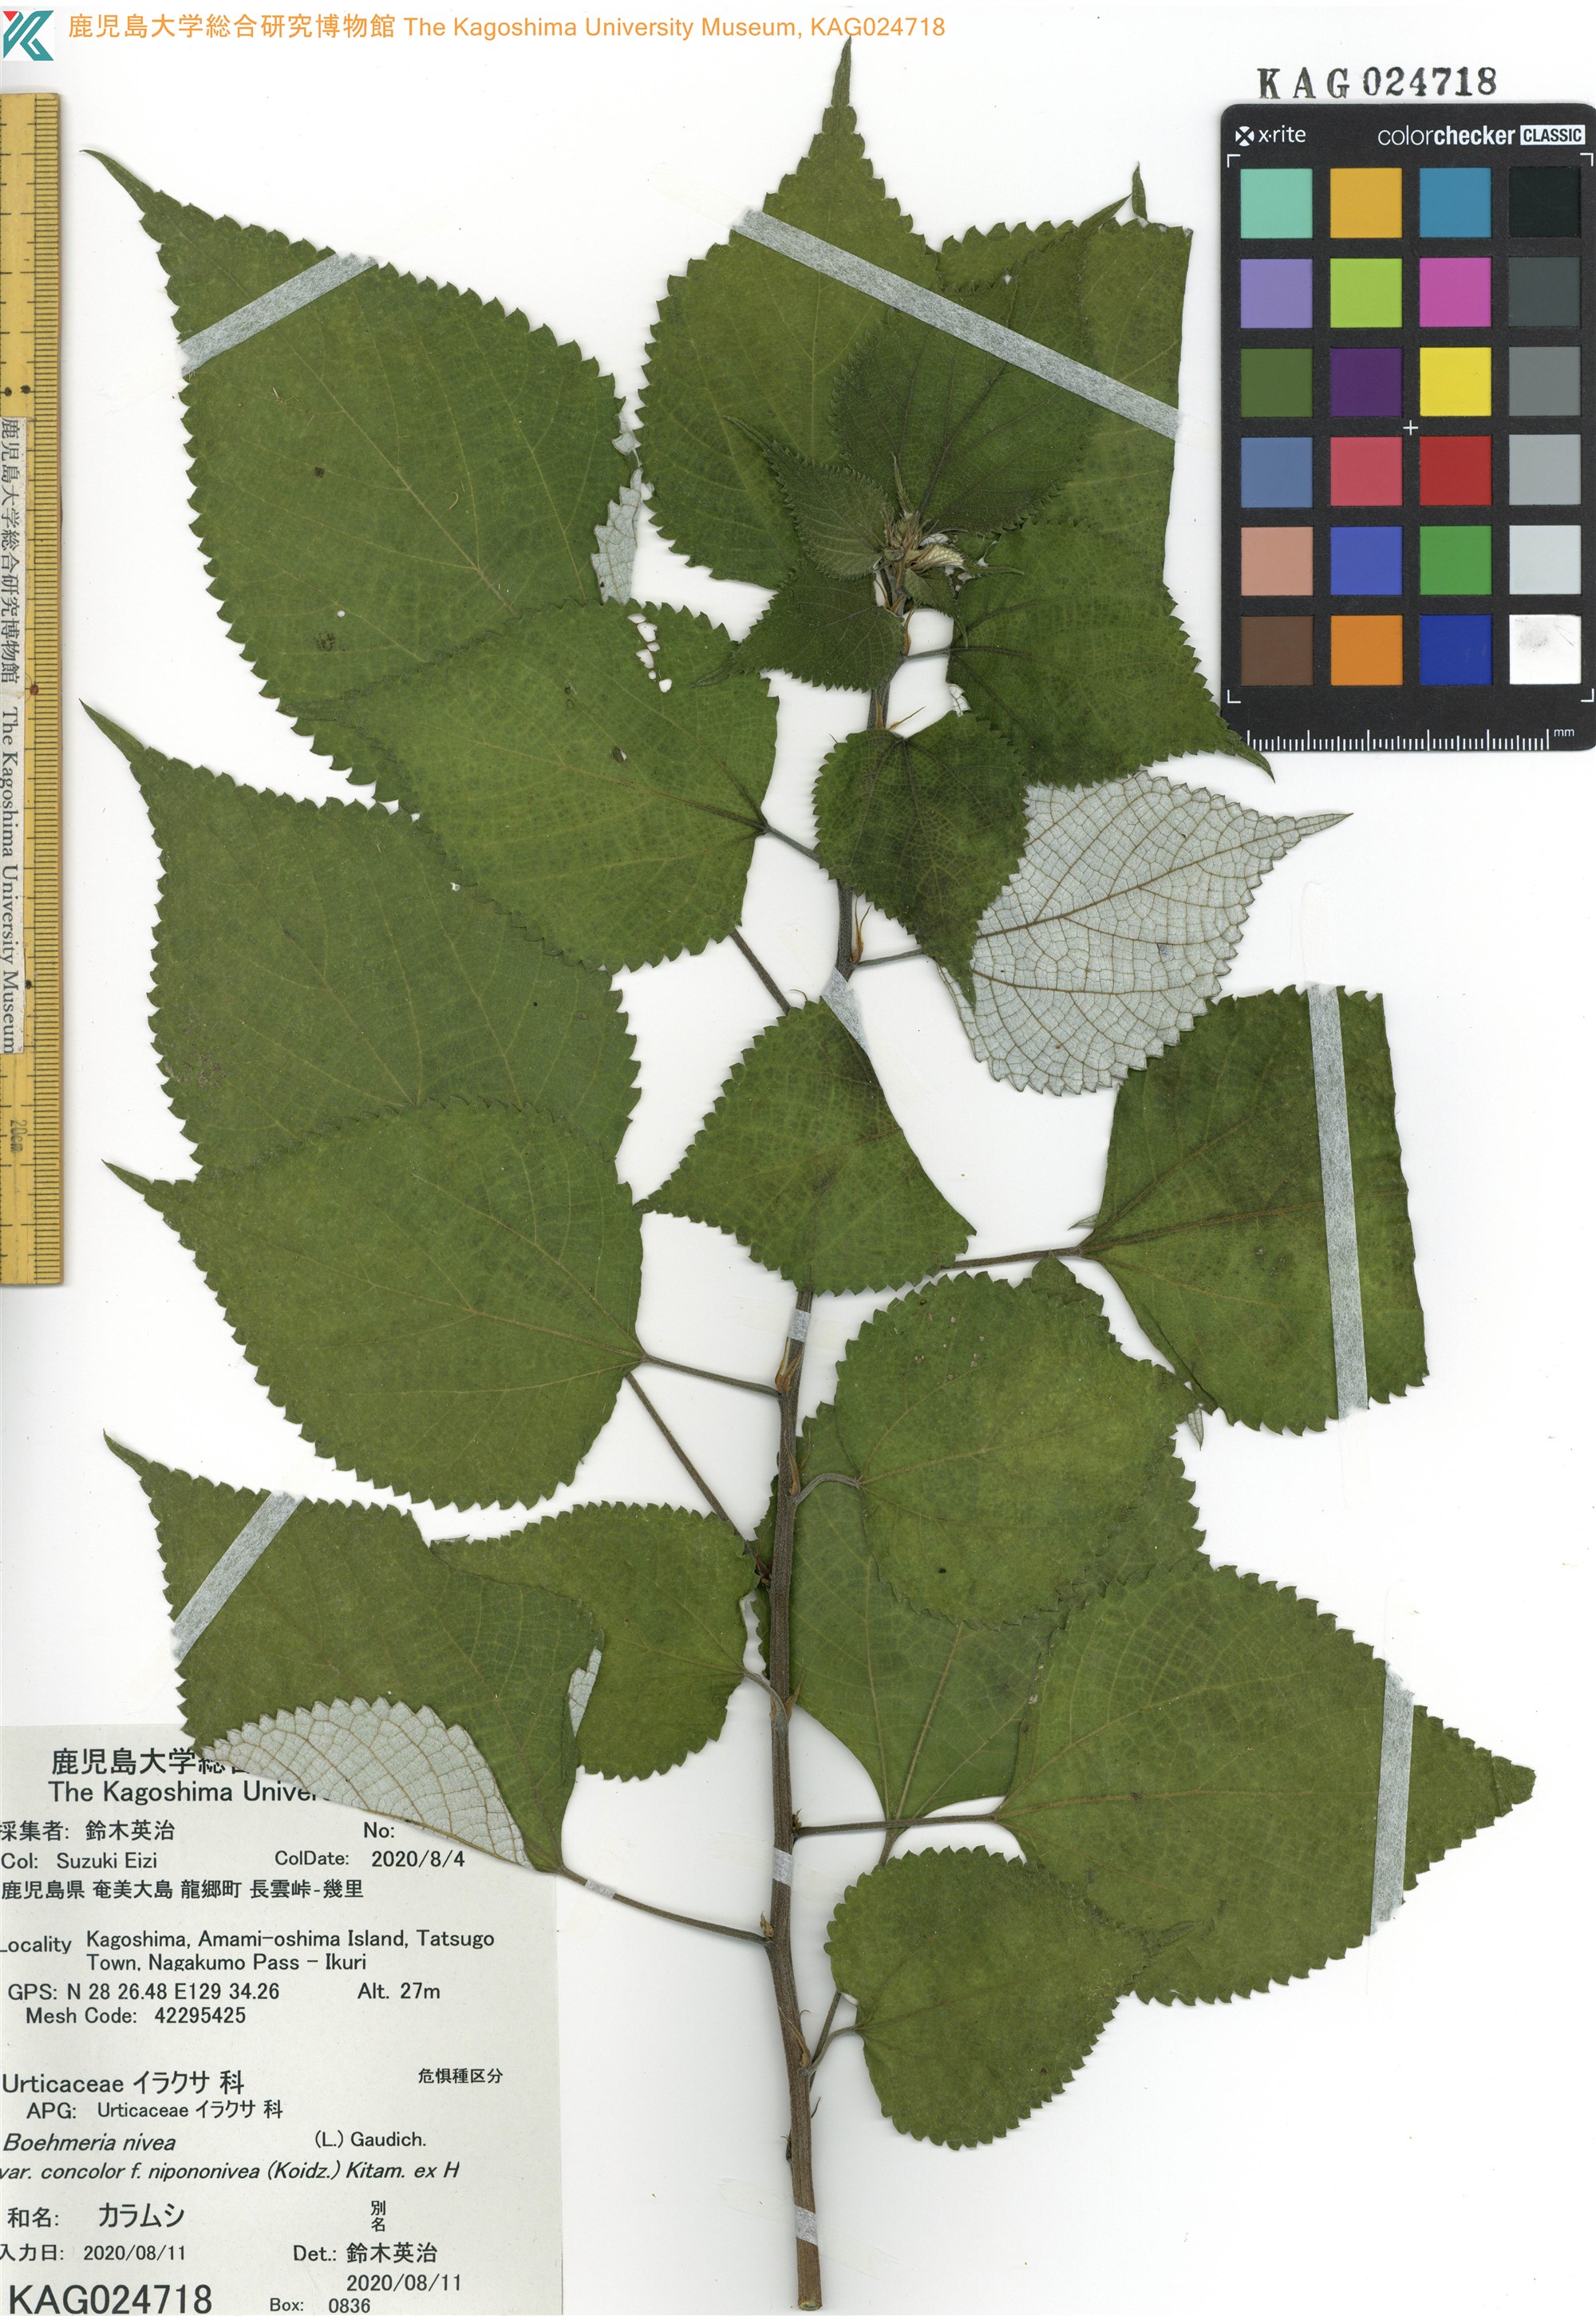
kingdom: Plantae
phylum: Tracheophyta
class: Magnoliopsida
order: Rosales
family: Urticaceae
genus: Boehmeria
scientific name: Boehmeria nivea
